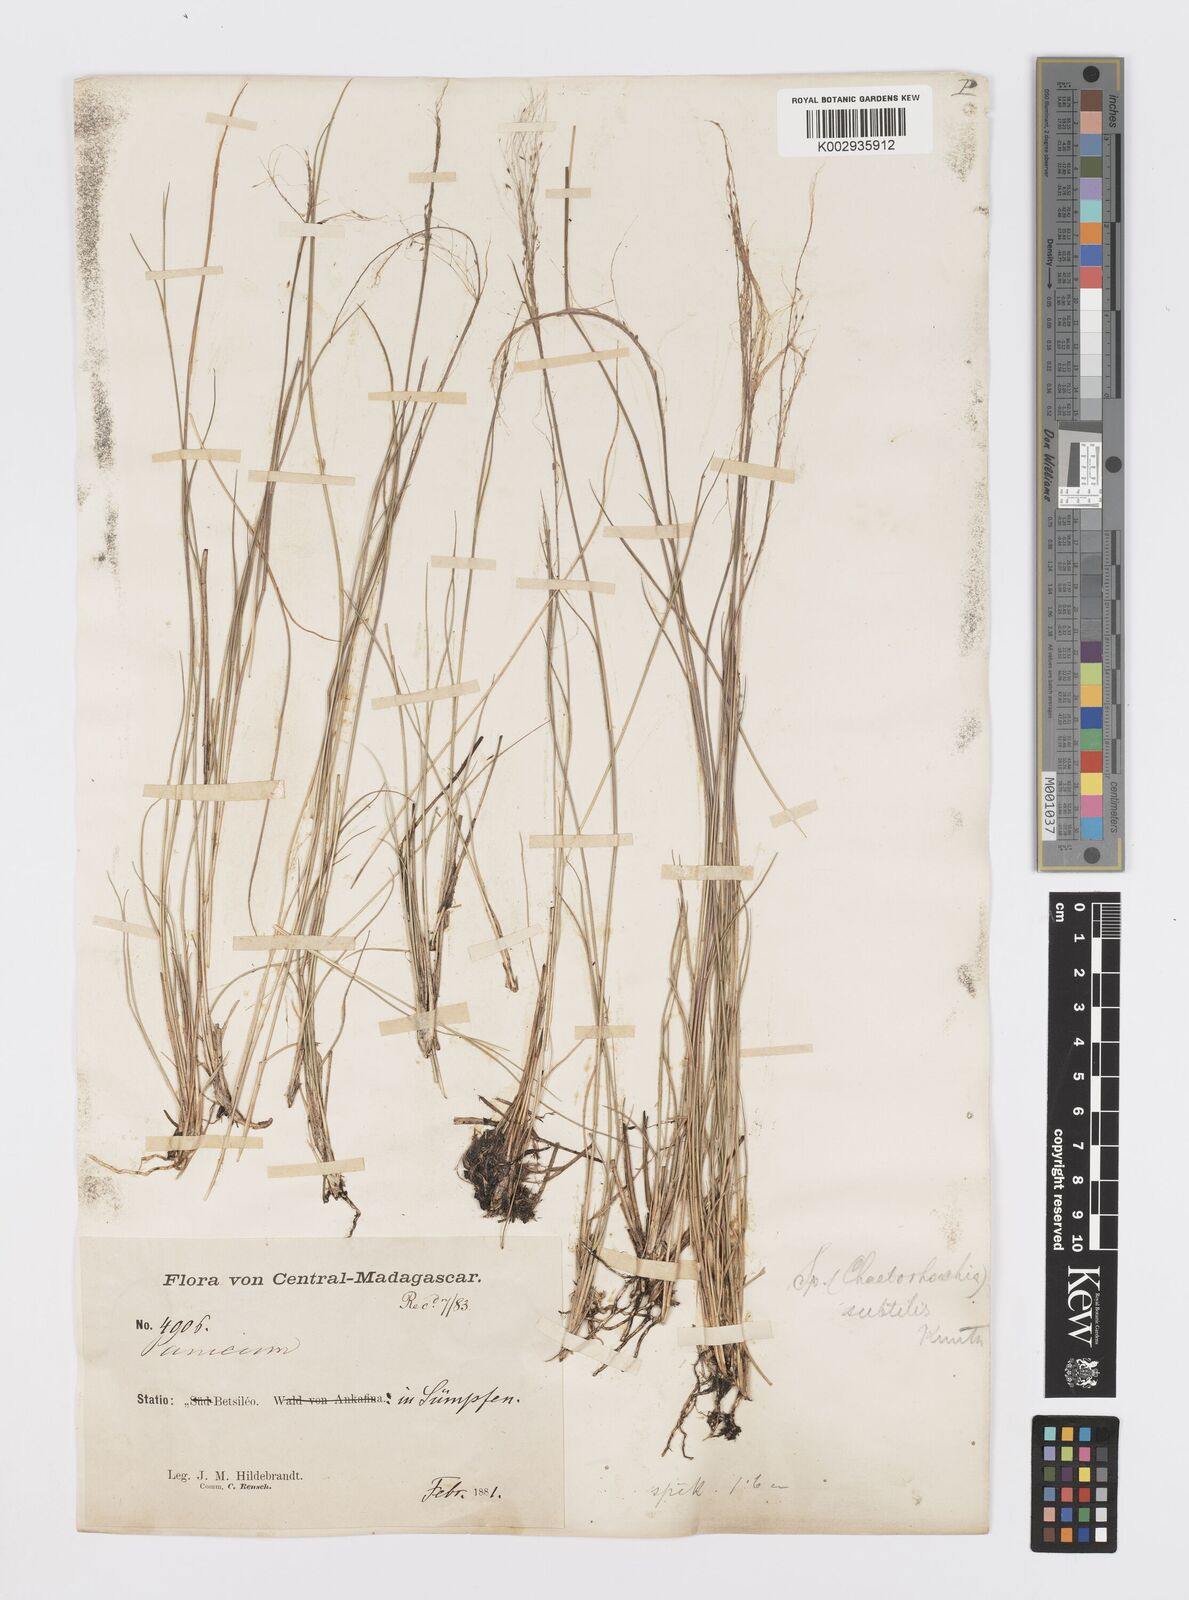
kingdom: Plantae
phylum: Tracheophyta
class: Liliopsida
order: Poales
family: Poaceae
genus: Sporobolus
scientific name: Sporobolus subtilis
